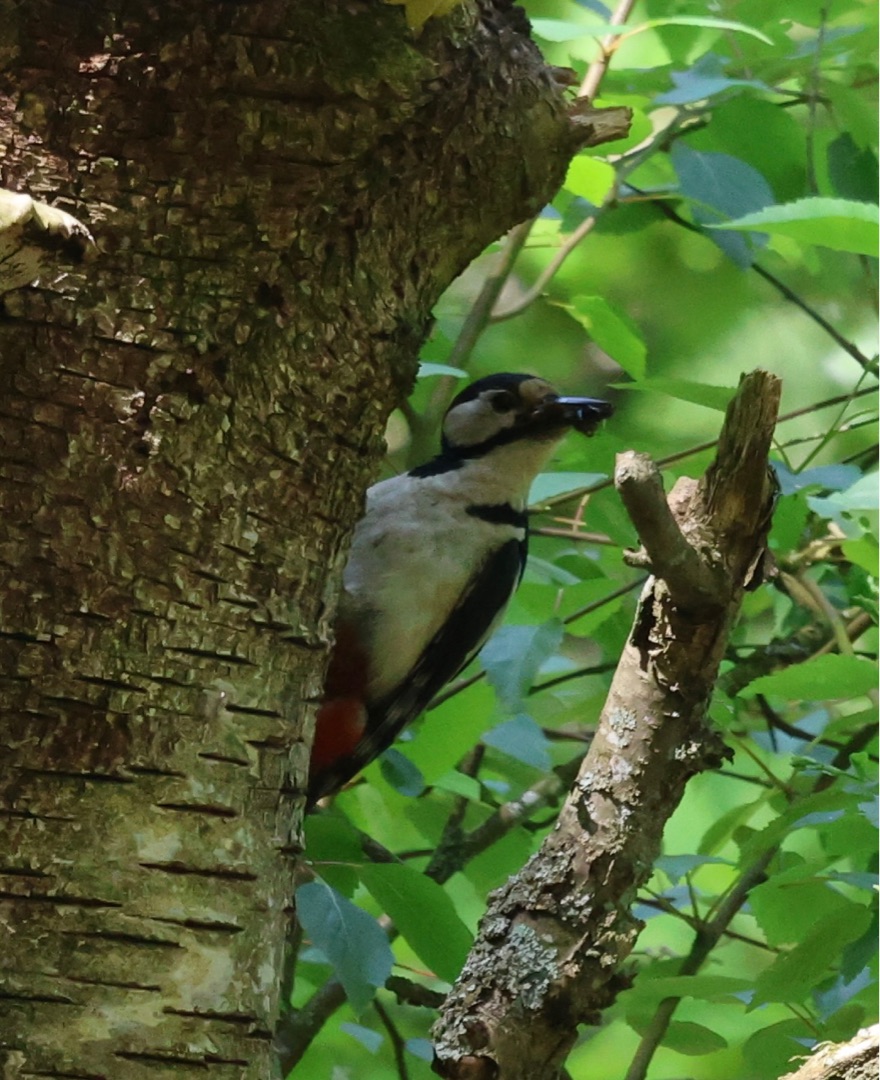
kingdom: Animalia
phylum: Chordata
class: Aves
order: Piciformes
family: Picidae
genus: Dendrocopos
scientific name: Dendrocopos major
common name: Stor flagspætte
